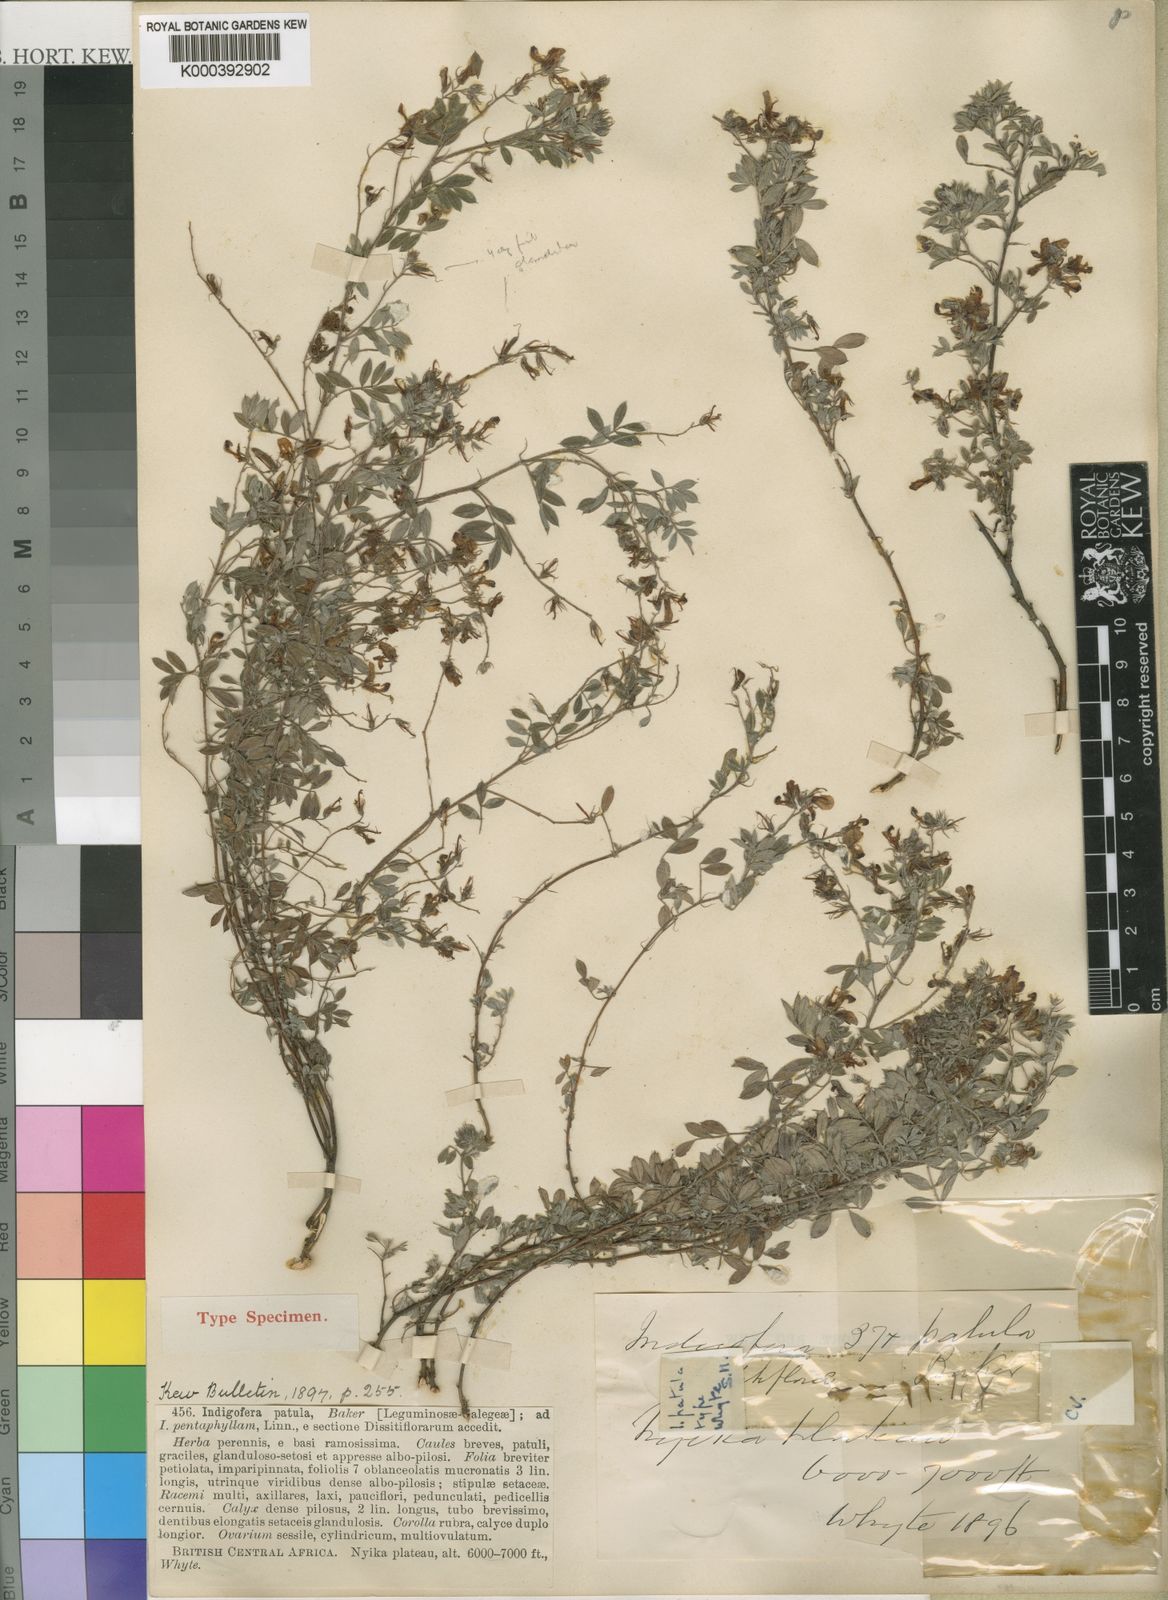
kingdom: Plantae
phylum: Tracheophyta
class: Magnoliopsida
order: Fabales
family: Fabaceae
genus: Indigofera
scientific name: Indigofera patula
